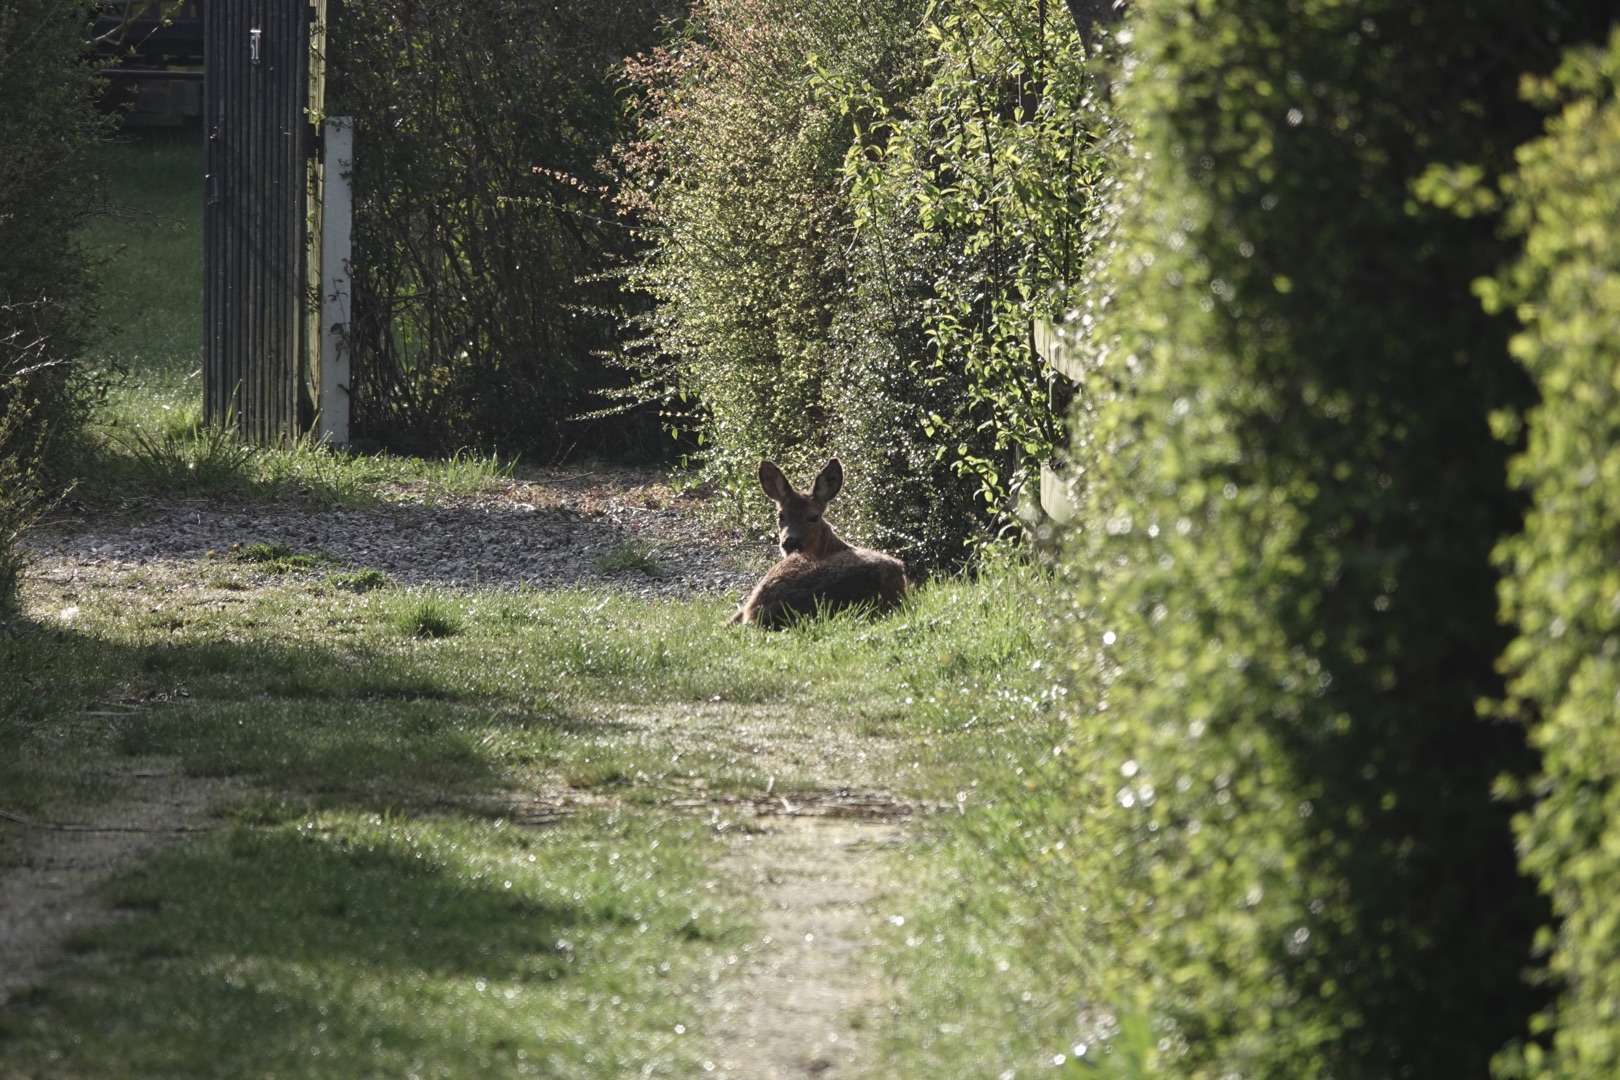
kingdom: Animalia
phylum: Chordata
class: Mammalia
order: Artiodactyla
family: Cervidae
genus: Capreolus
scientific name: Capreolus capreolus
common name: Rådyr
